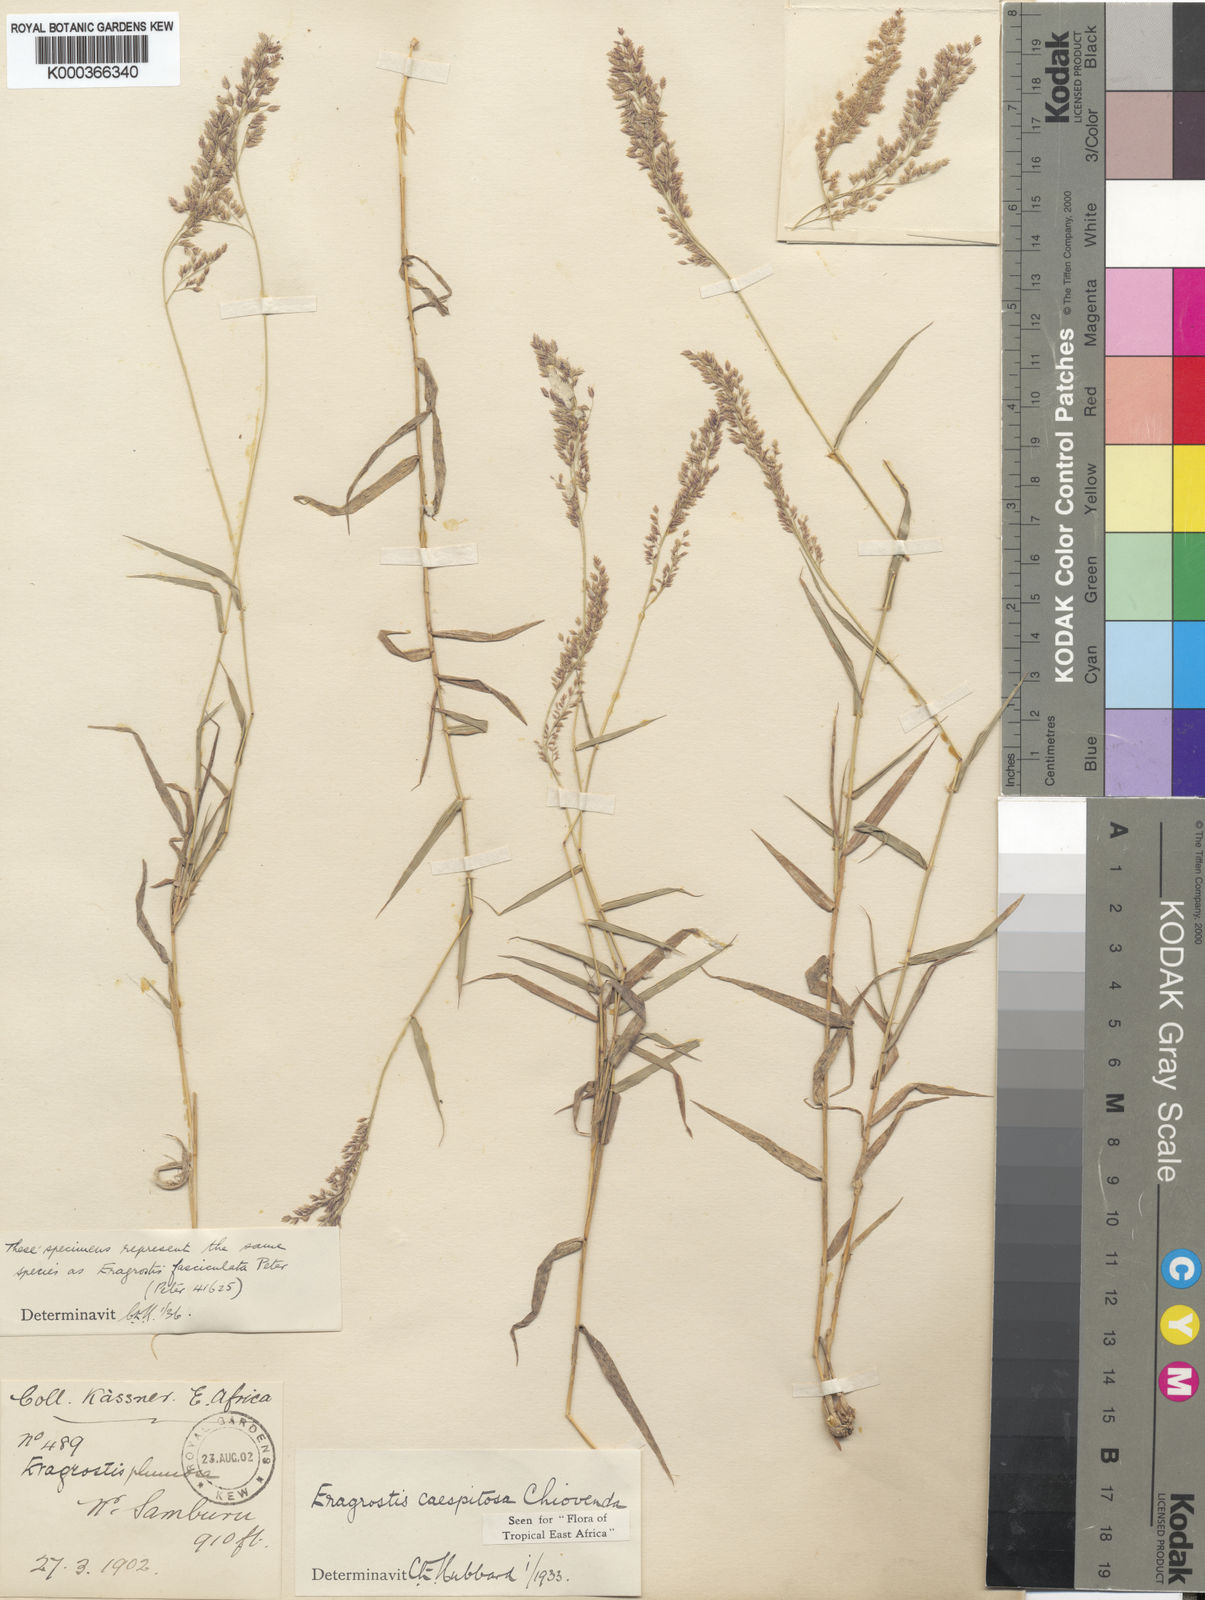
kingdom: Plantae
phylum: Tracheophyta
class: Liliopsida
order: Poales
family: Poaceae
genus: Eragrostis
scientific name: Eragrostis caespitosa
